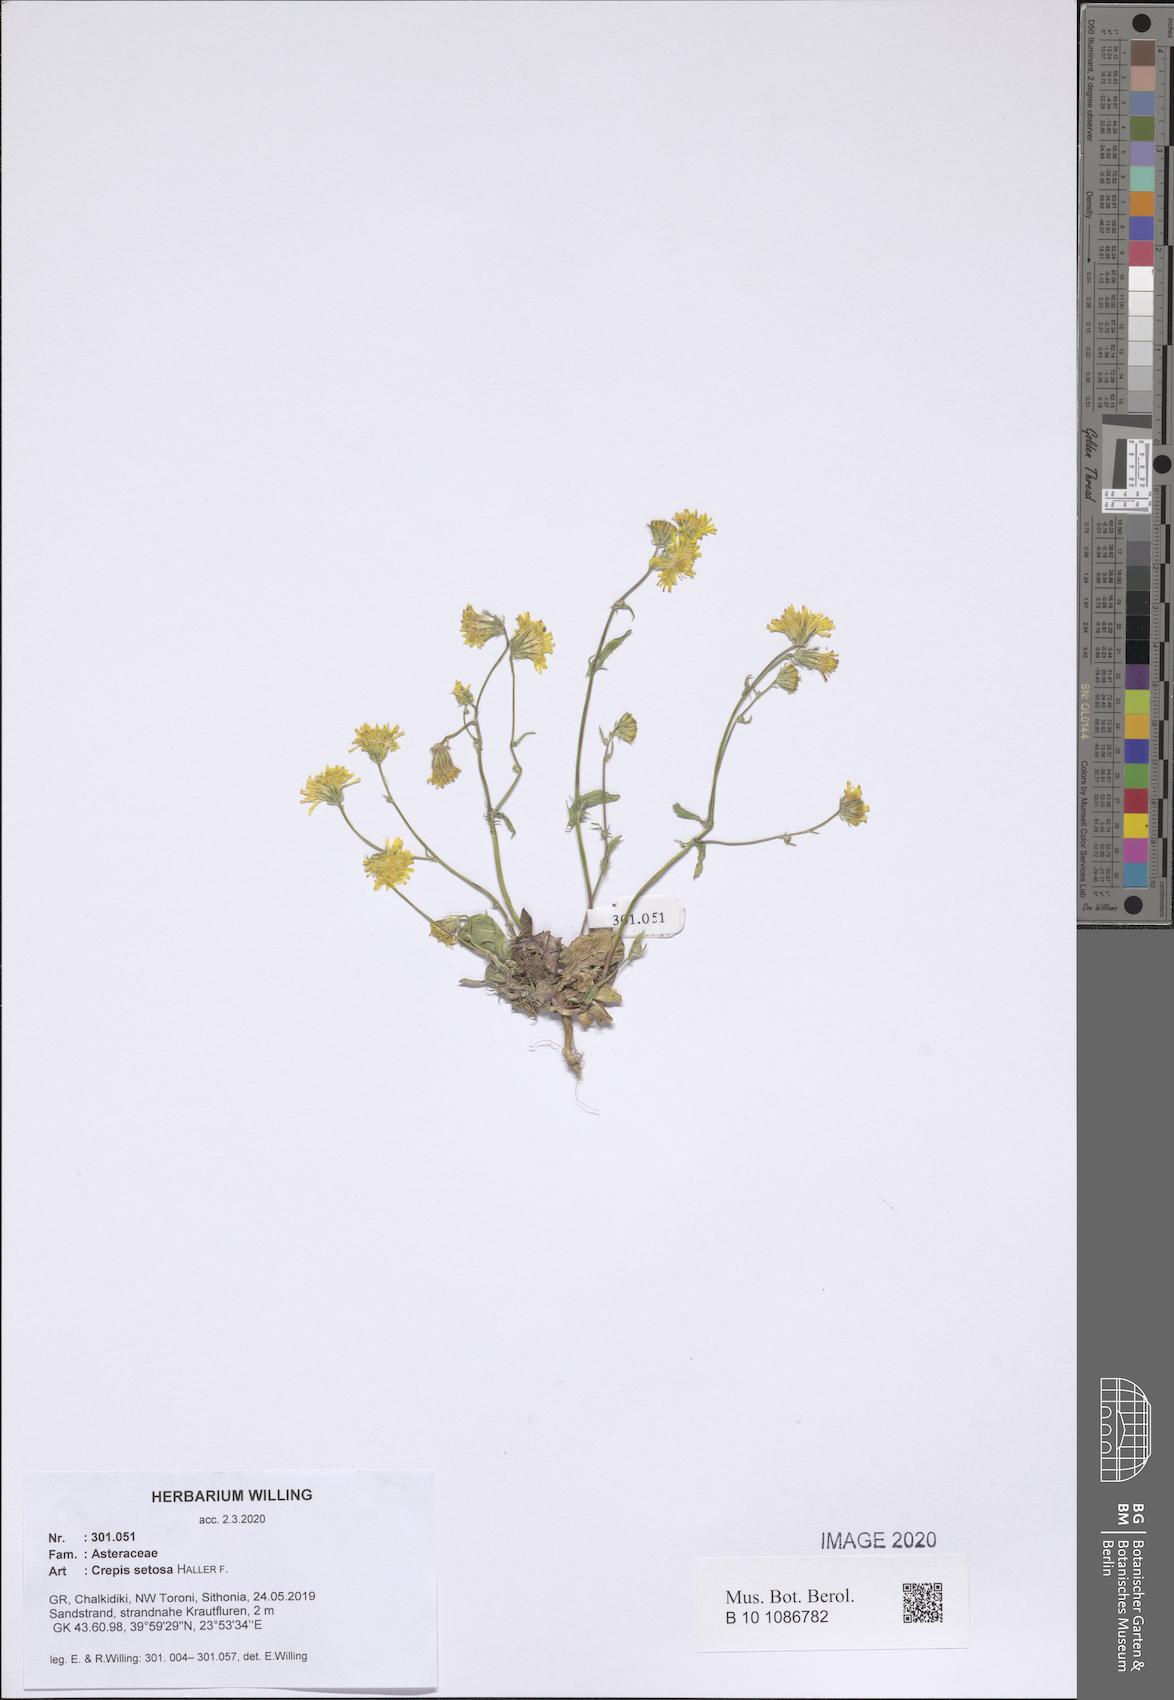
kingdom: Plantae
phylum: Tracheophyta
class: Magnoliopsida
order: Asterales
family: Asteraceae
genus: Crepis
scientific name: Crepis setosa
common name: Bristly hawk's-beard
